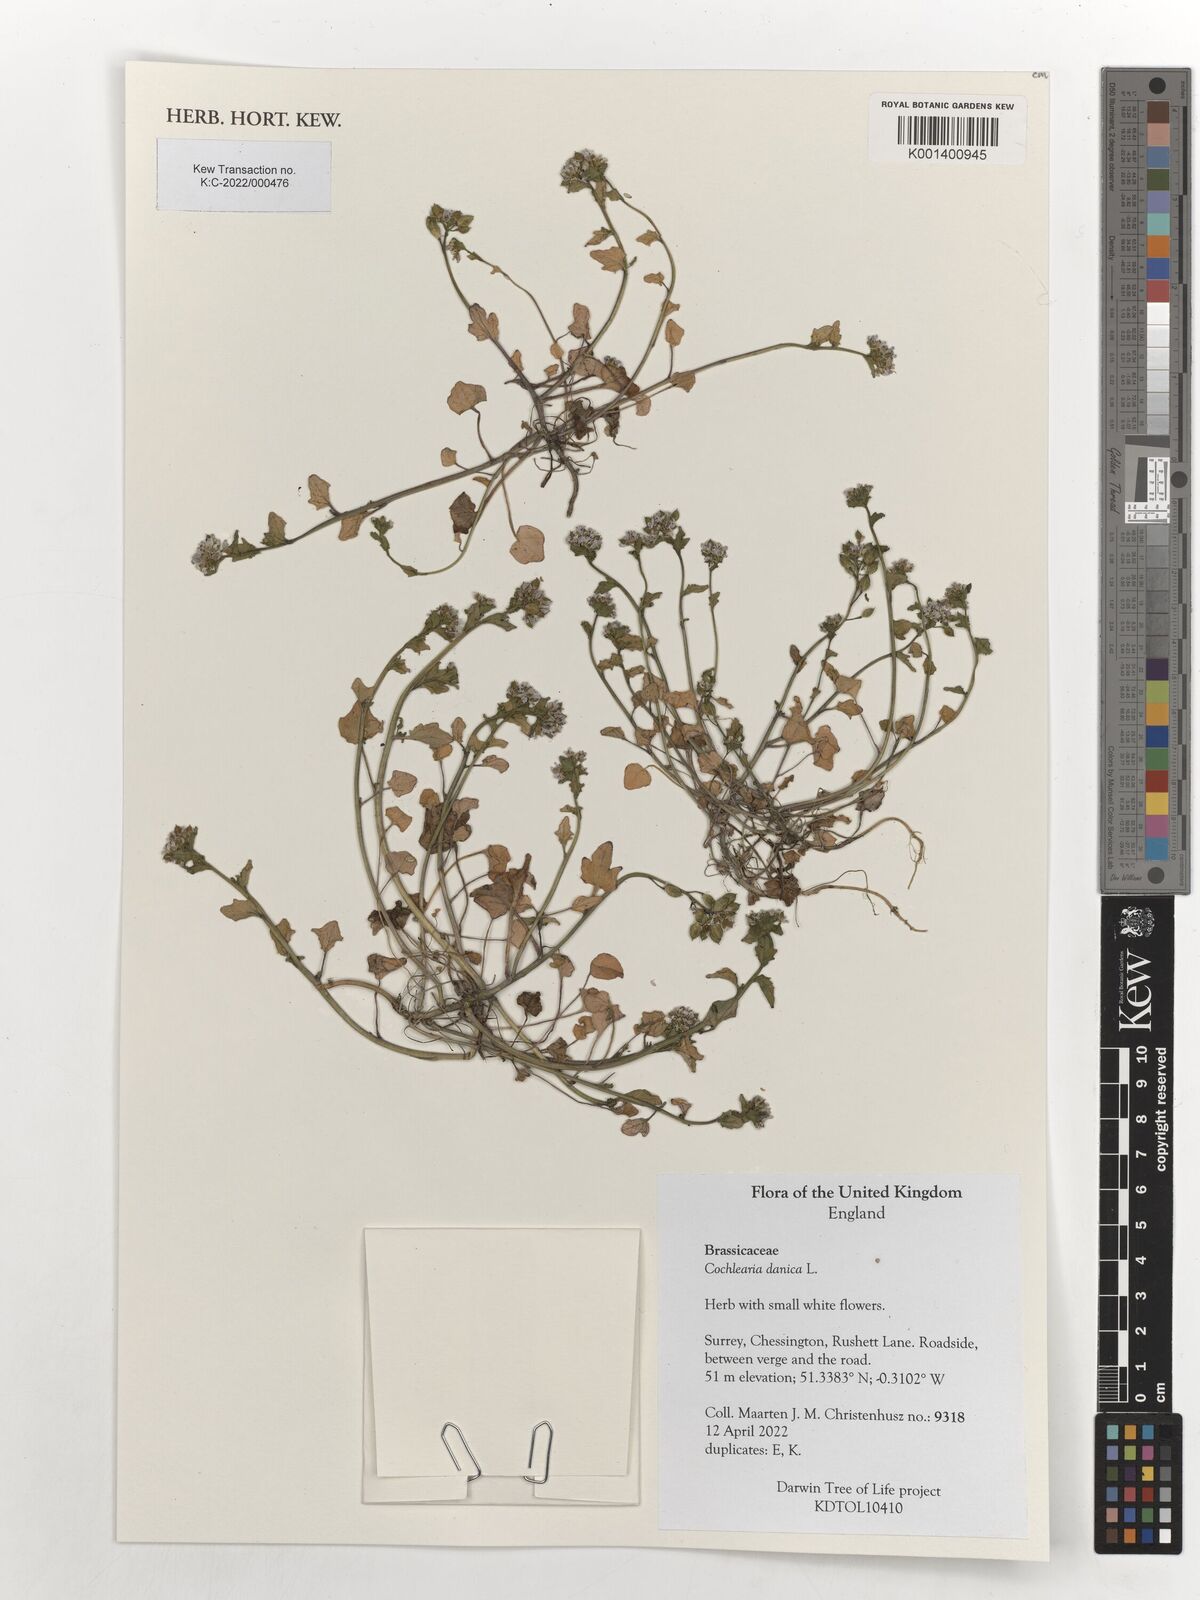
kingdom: Plantae
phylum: Tracheophyta
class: Magnoliopsida
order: Brassicales
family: Brassicaceae
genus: Cochlearia
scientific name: Cochlearia danica
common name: Early scurvygrass
